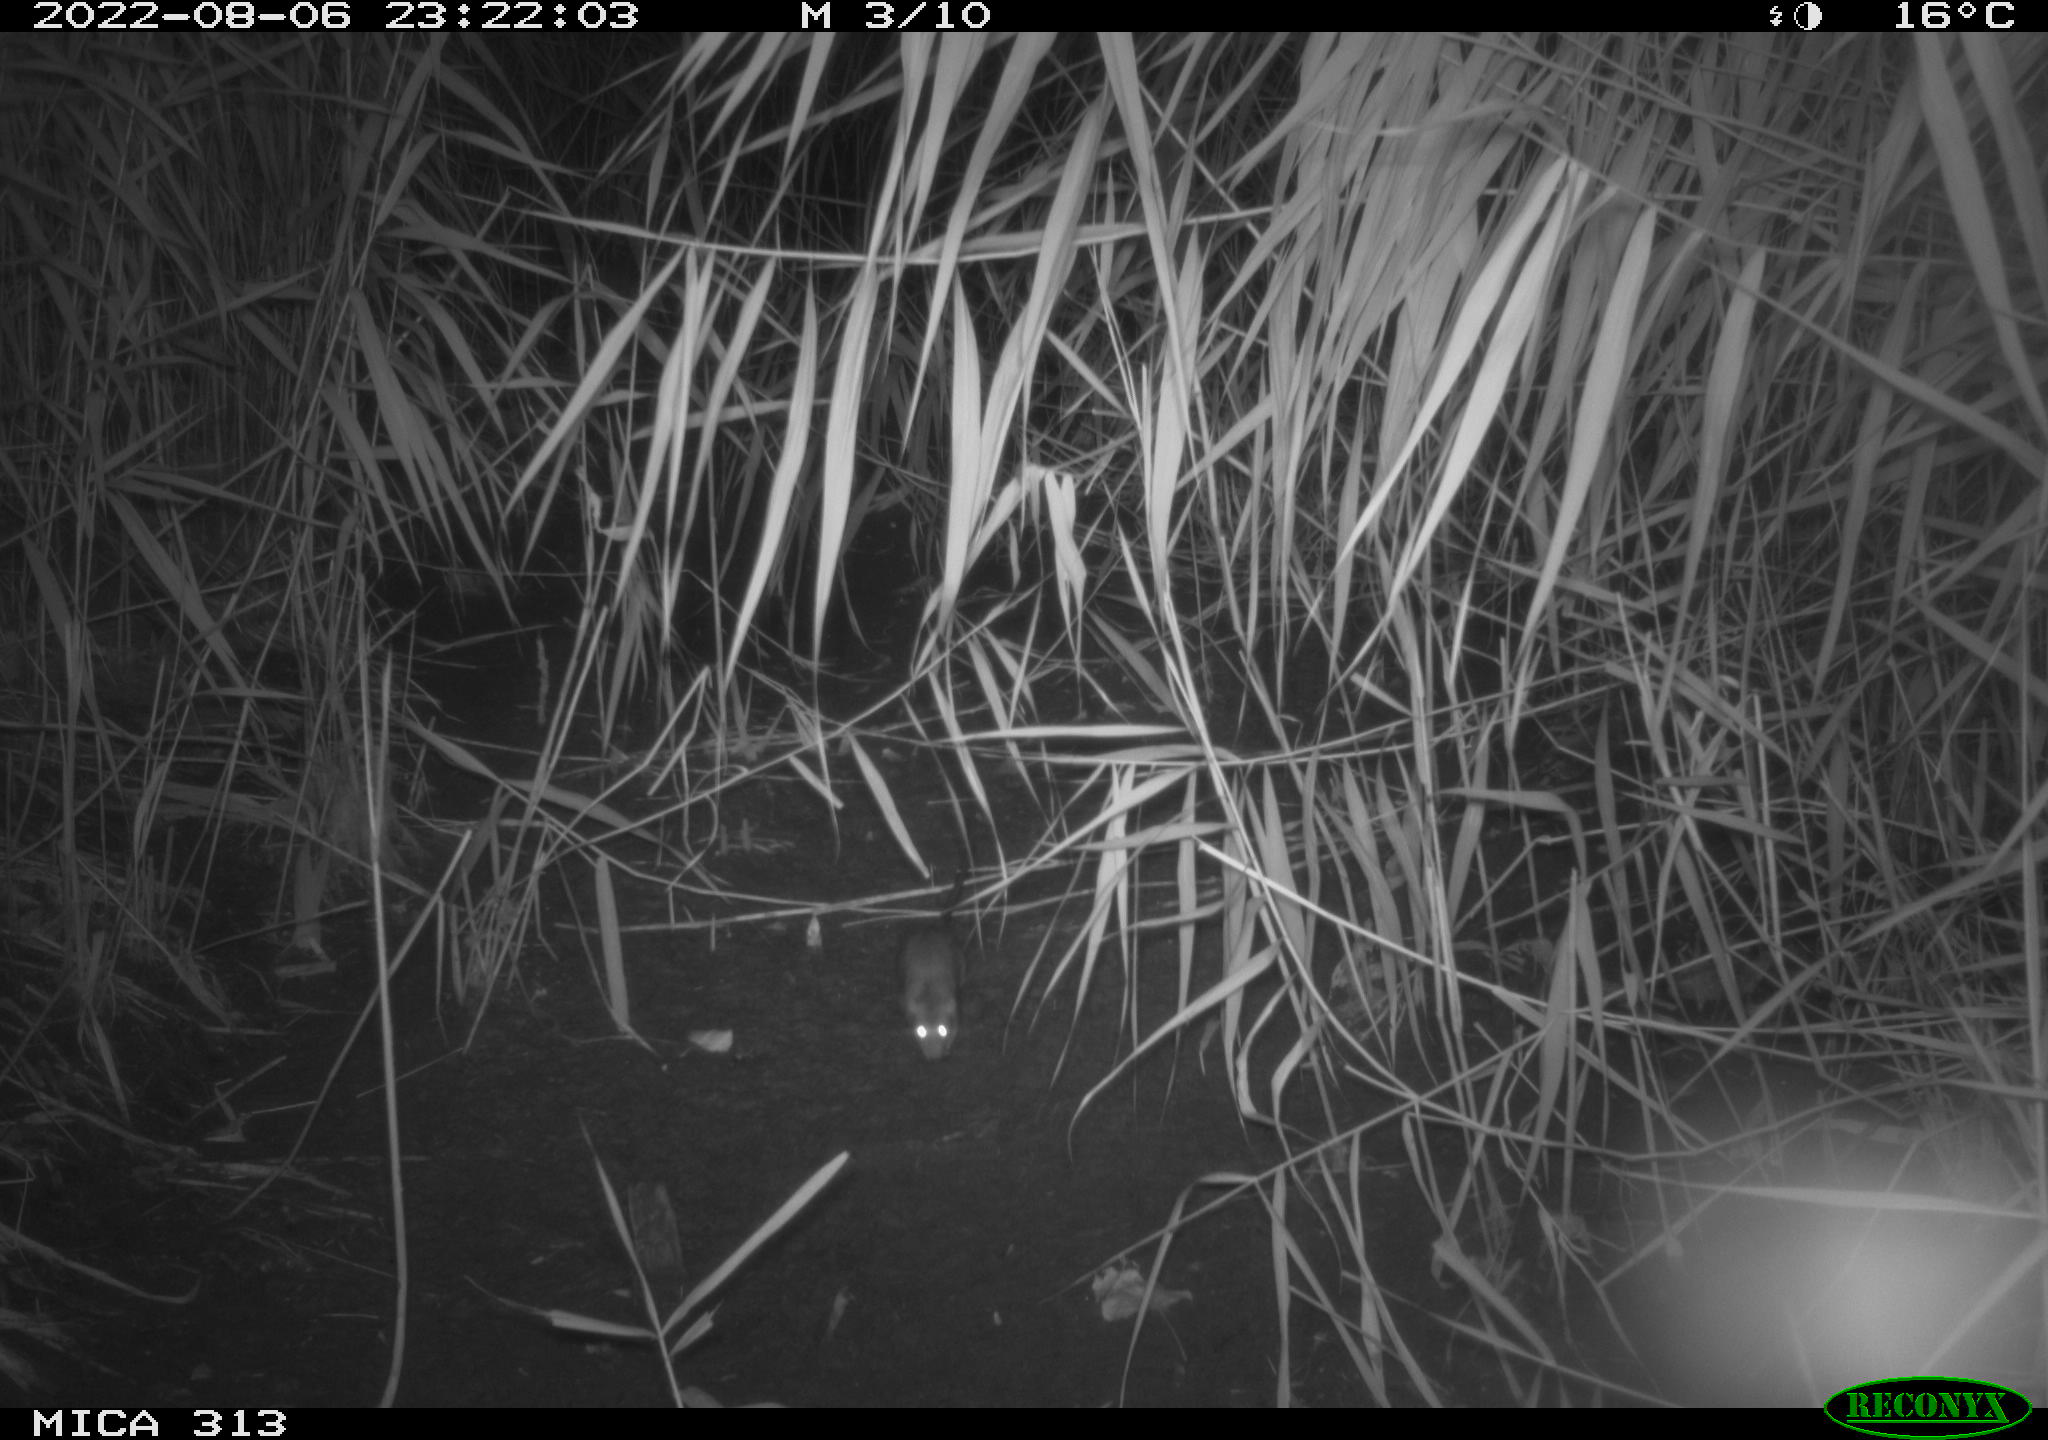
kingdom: Animalia
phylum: Chordata
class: Mammalia
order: Rodentia
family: Muridae
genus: Rattus
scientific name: Rattus norvegicus
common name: Brown rat
